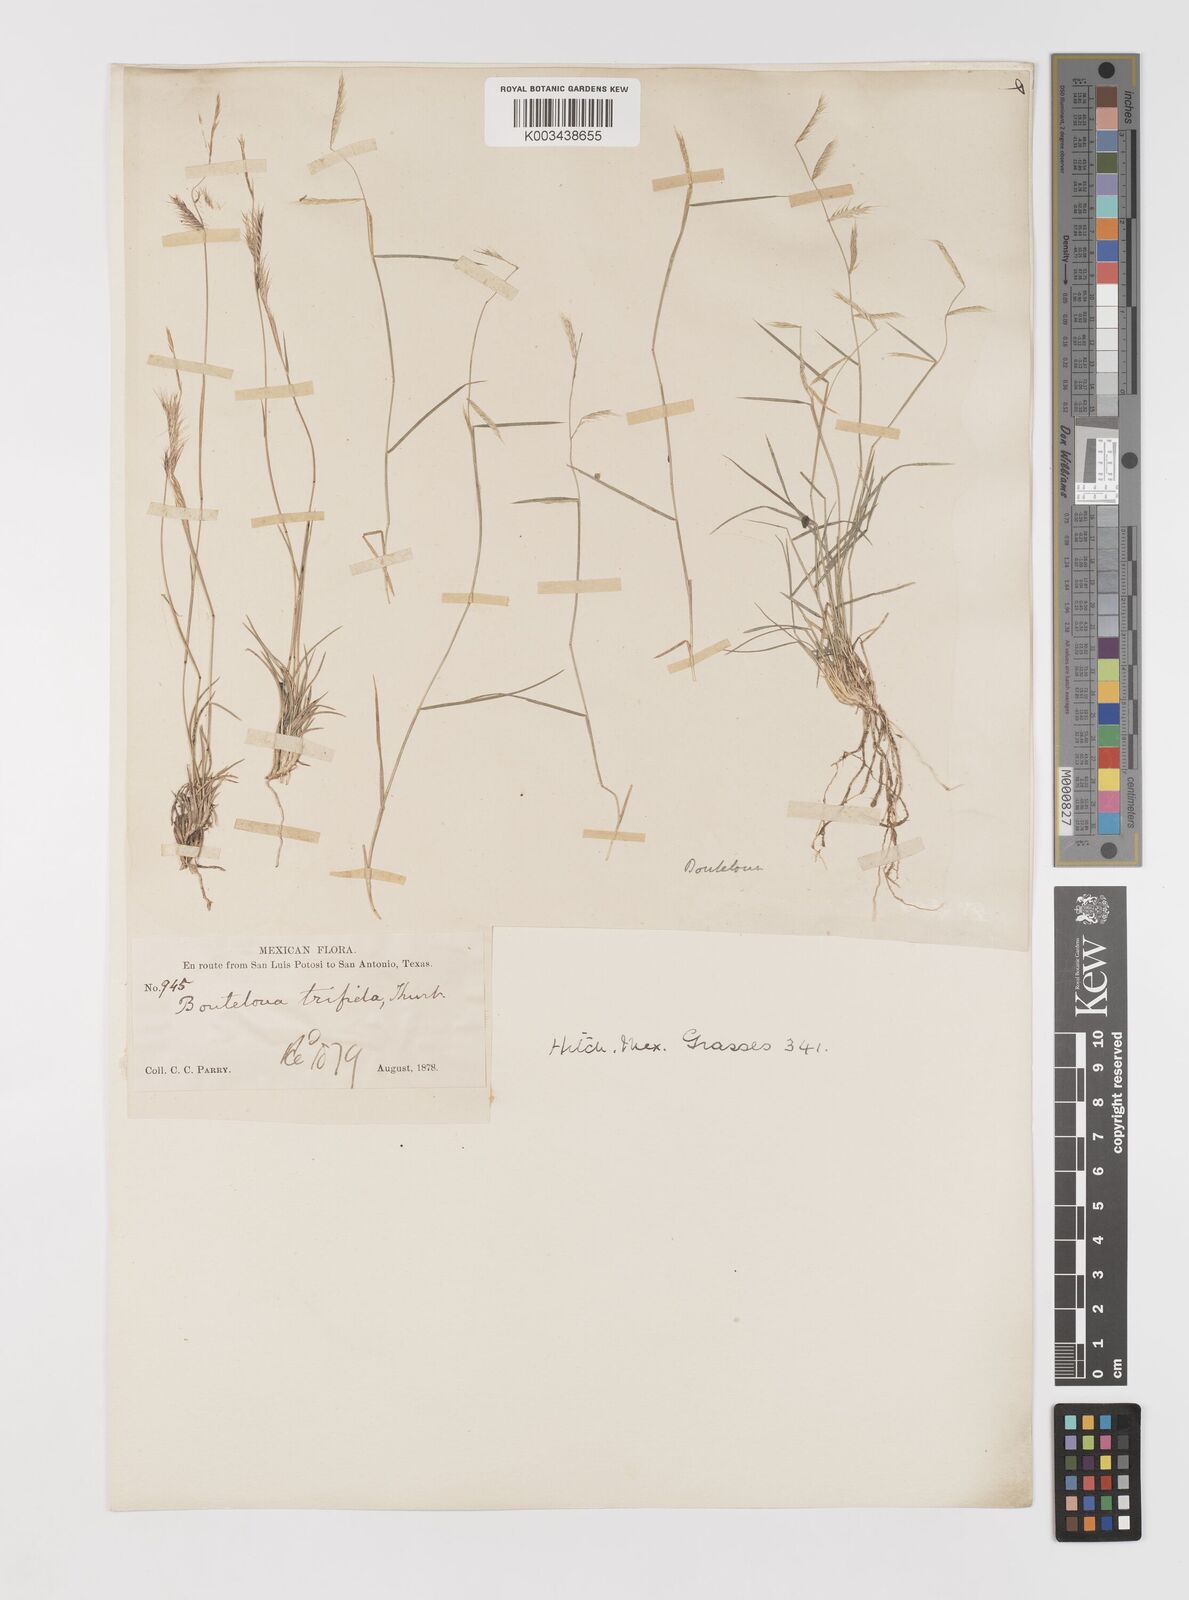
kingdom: Plantae
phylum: Tracheophyta
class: Liliopsida
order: Poales
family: Poaceae
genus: Bouteloua
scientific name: Bouteloua
